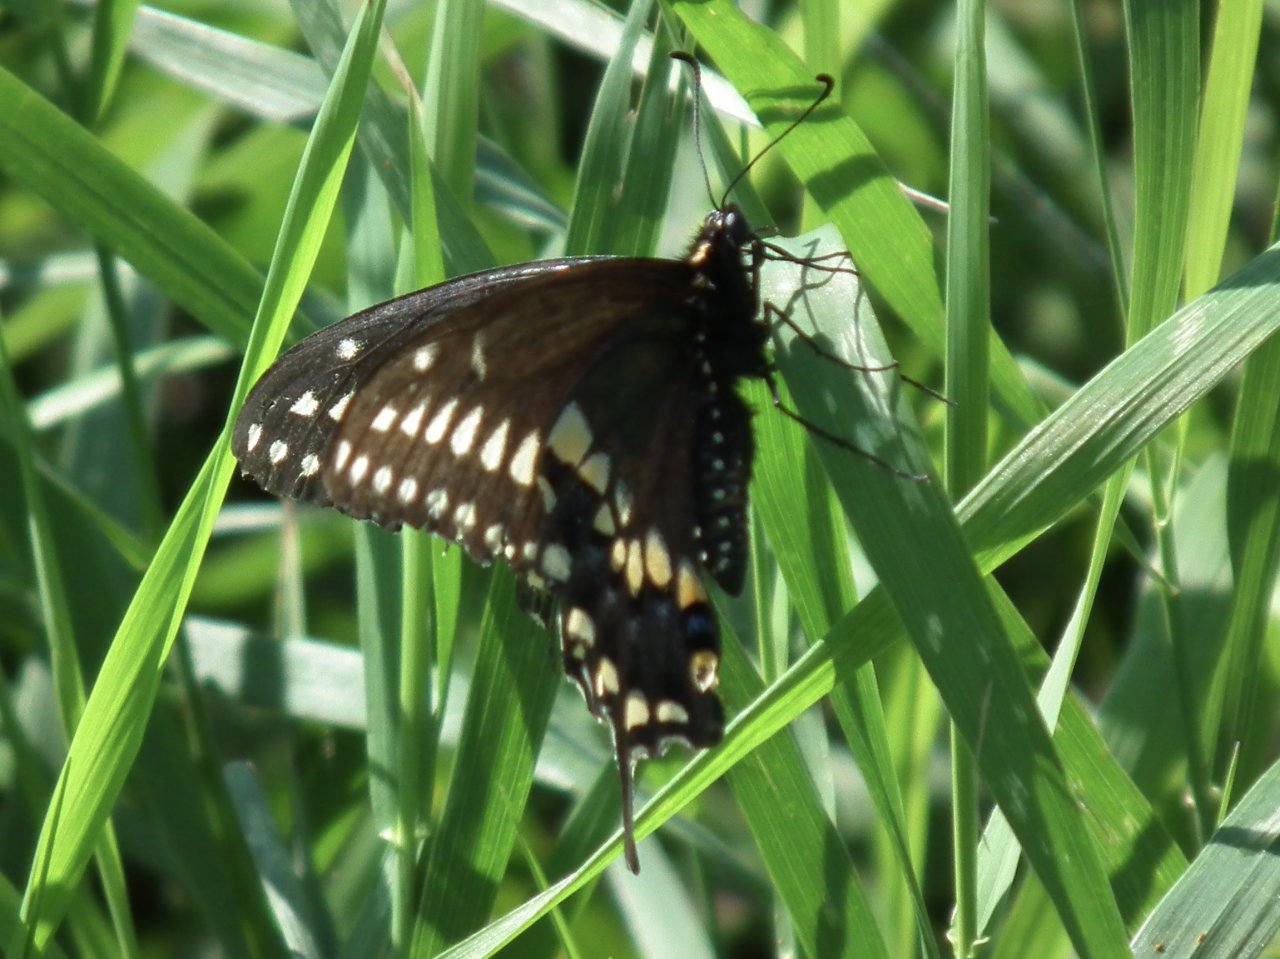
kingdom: Animalia
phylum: Arthropoda
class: Insecta
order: Lepidoptera
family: Papilionidae
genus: Papilio
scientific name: Papilio polyxenes
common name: Black Swallowtail
